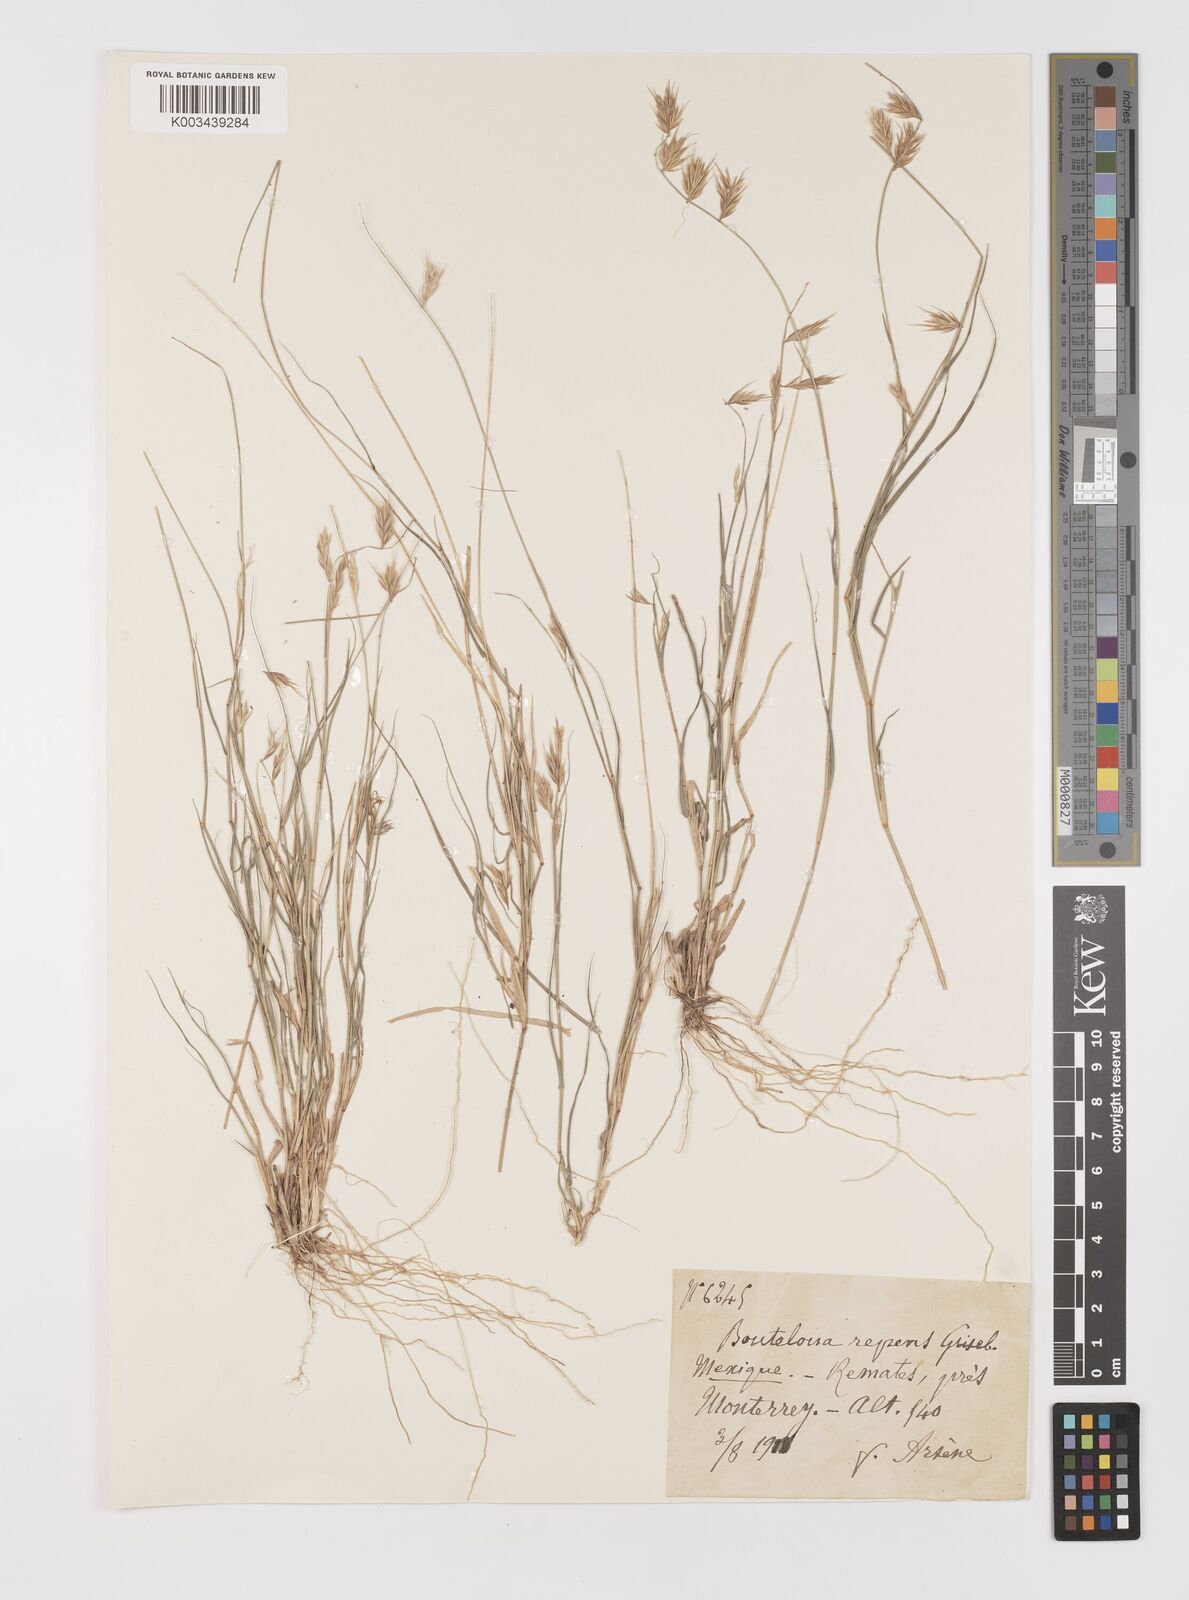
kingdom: Plantae
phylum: Tracheophyta
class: Liliopsida
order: Poales
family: Poaceae
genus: Bouteloua
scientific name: Bouteloua repens
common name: Slender grama
